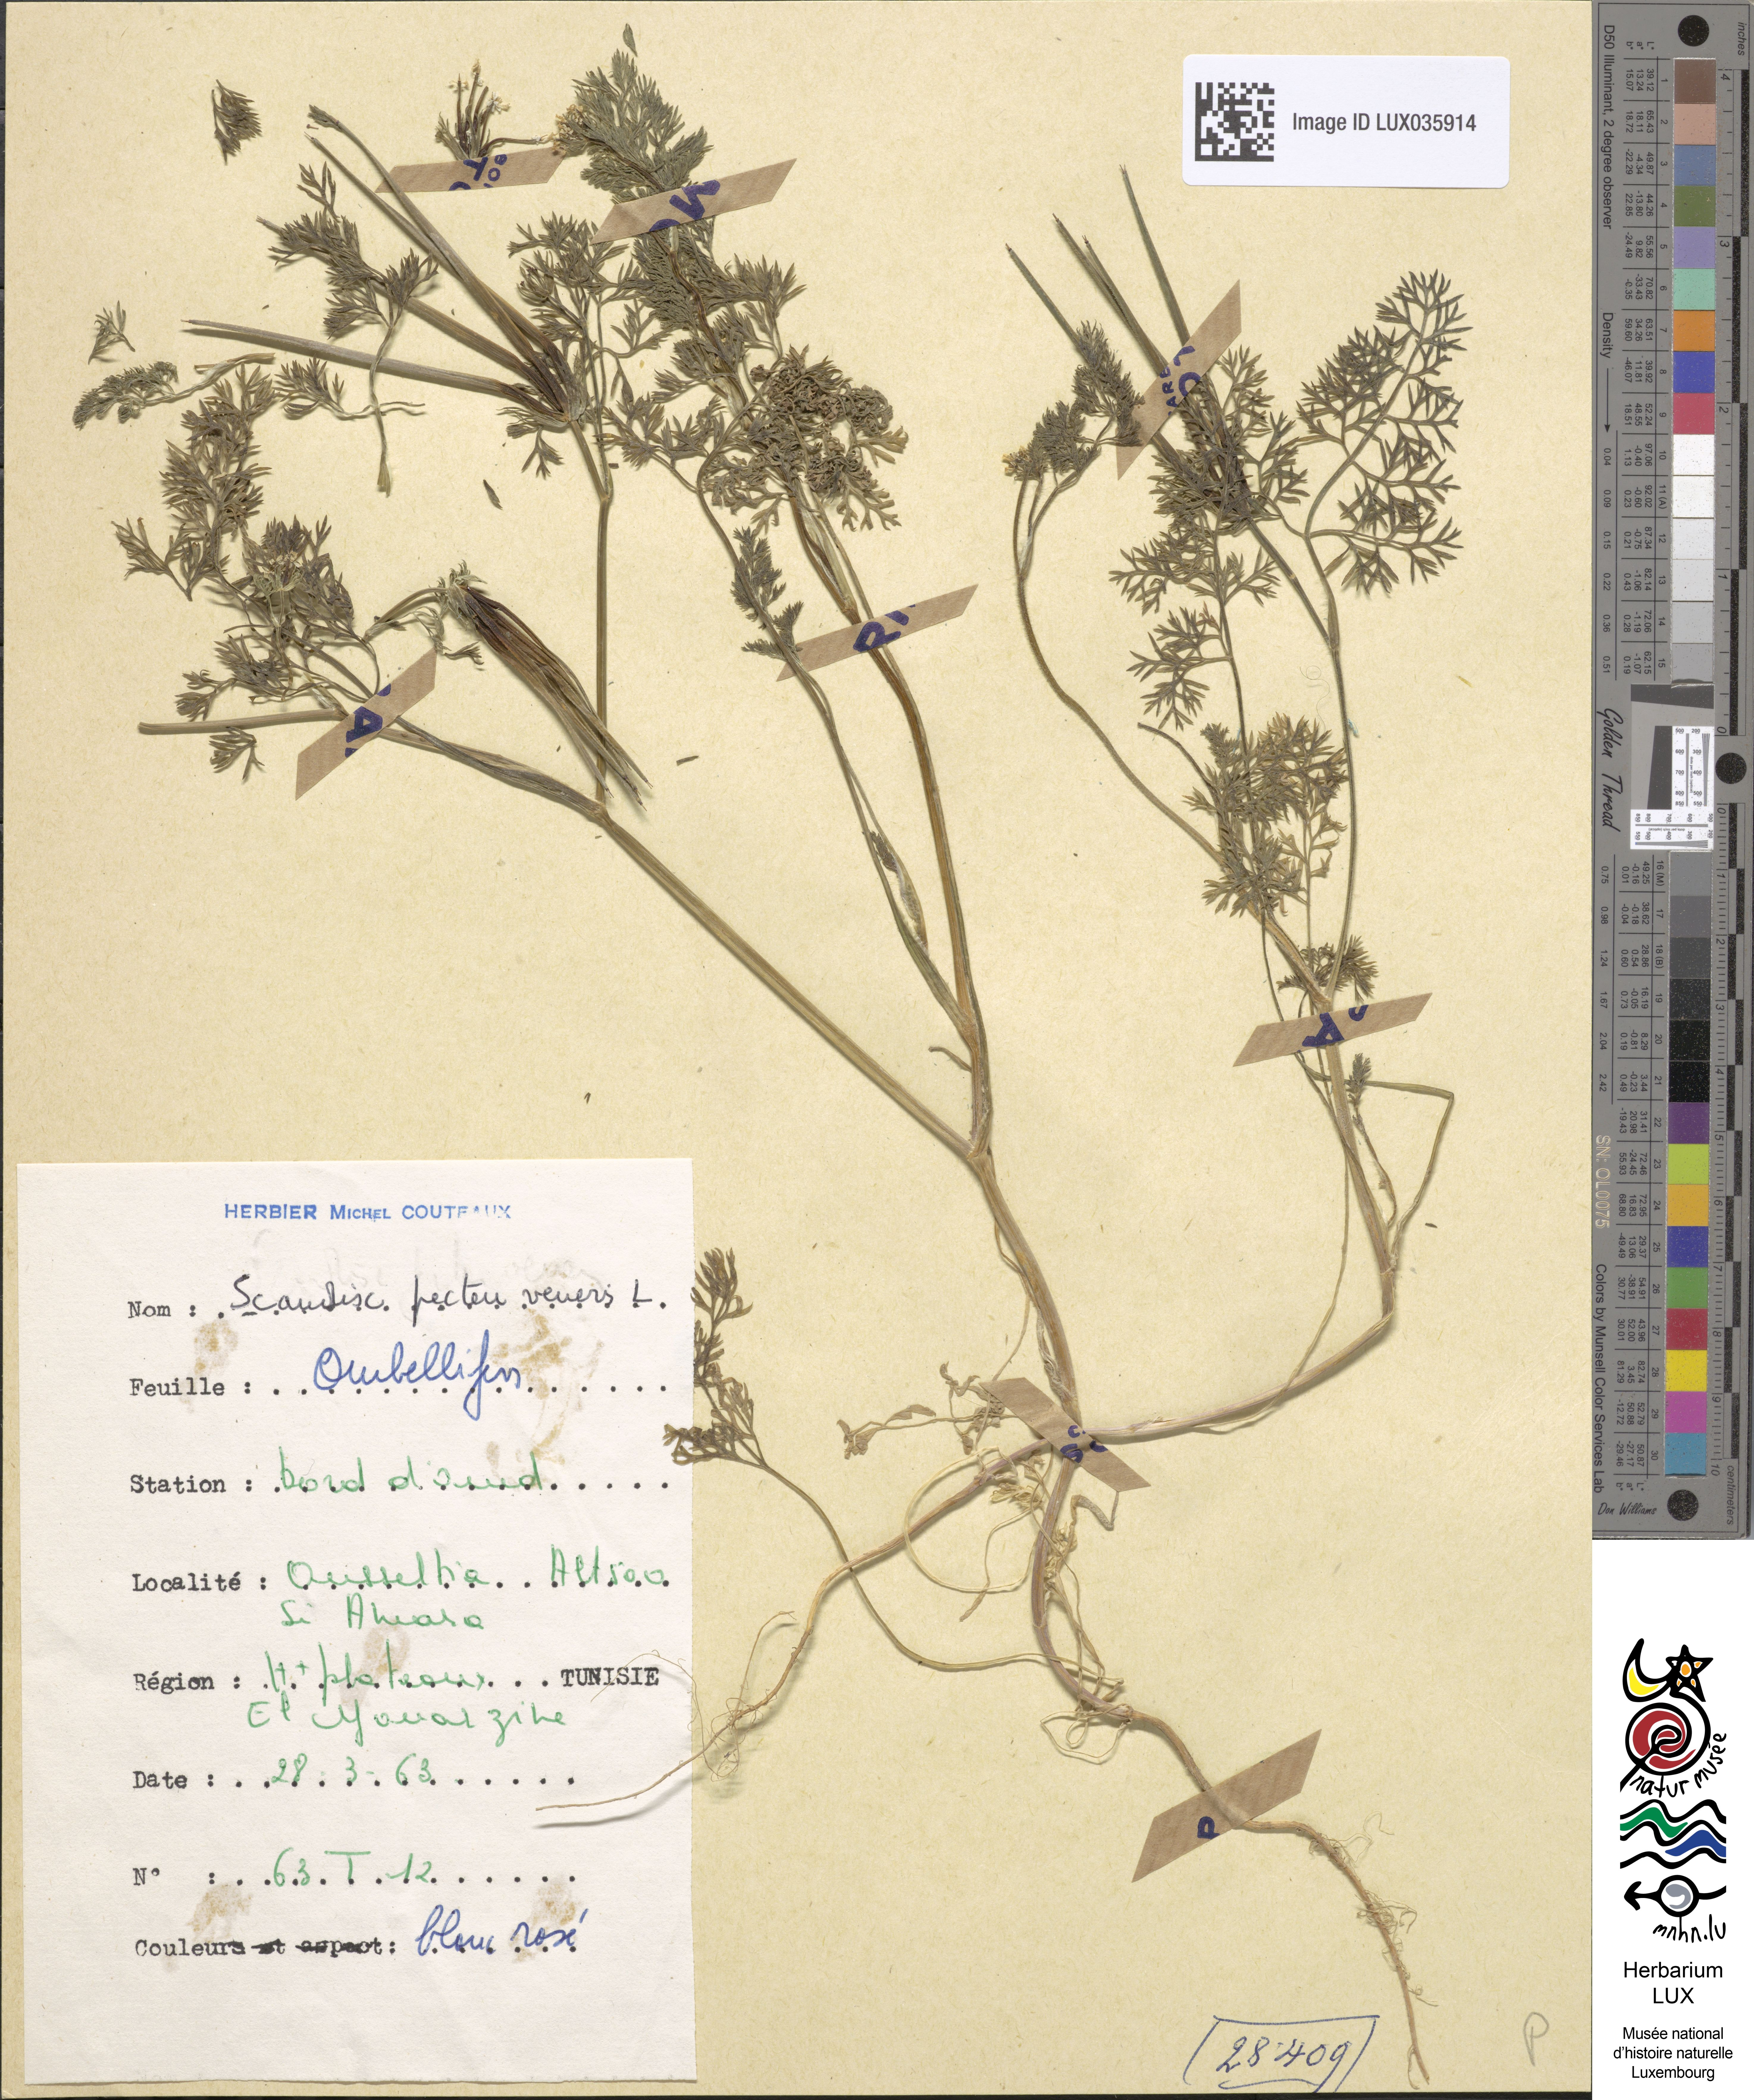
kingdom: Plantae
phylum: Tracheophyta
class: Magnoliopsida
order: Apiales
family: Apiaceae
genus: Scandix
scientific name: Scandix pecten-veneris
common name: Shepherd's-needle
